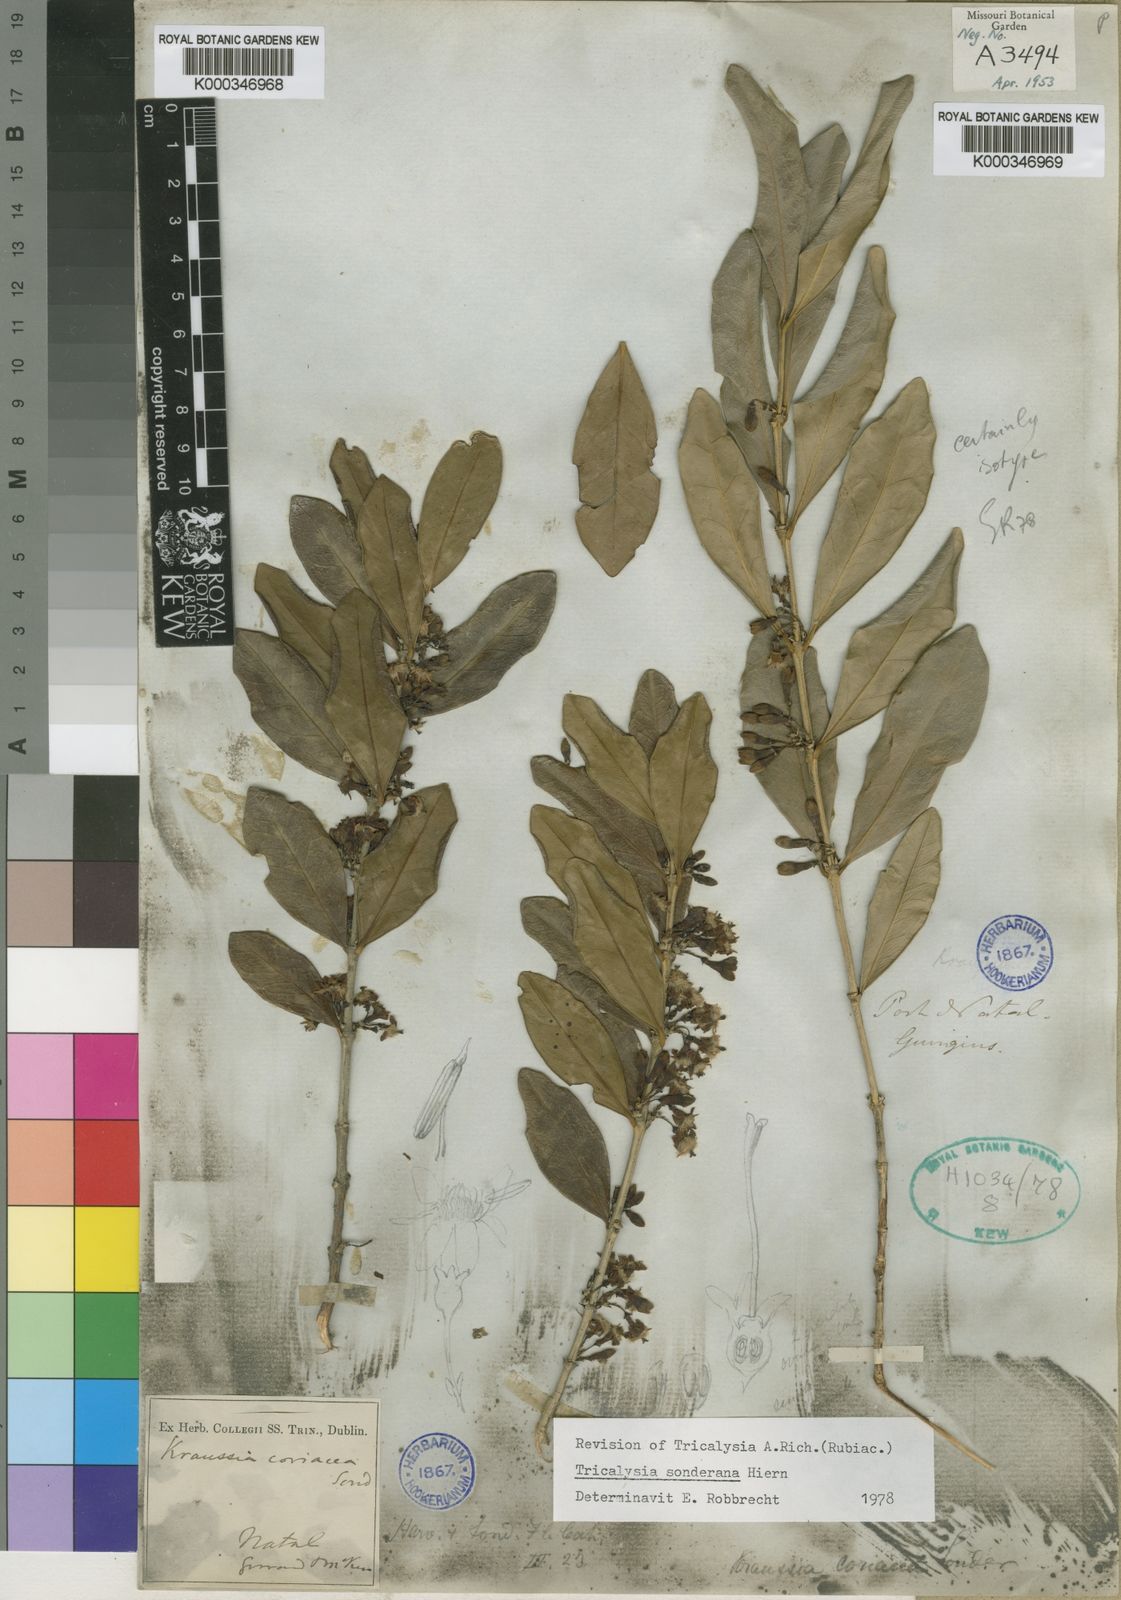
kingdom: Plantae
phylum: Tracheophyta
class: Magnoliopsida
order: Gentianales
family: Rubiaceae
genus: Empogona
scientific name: Empogona coriacea
